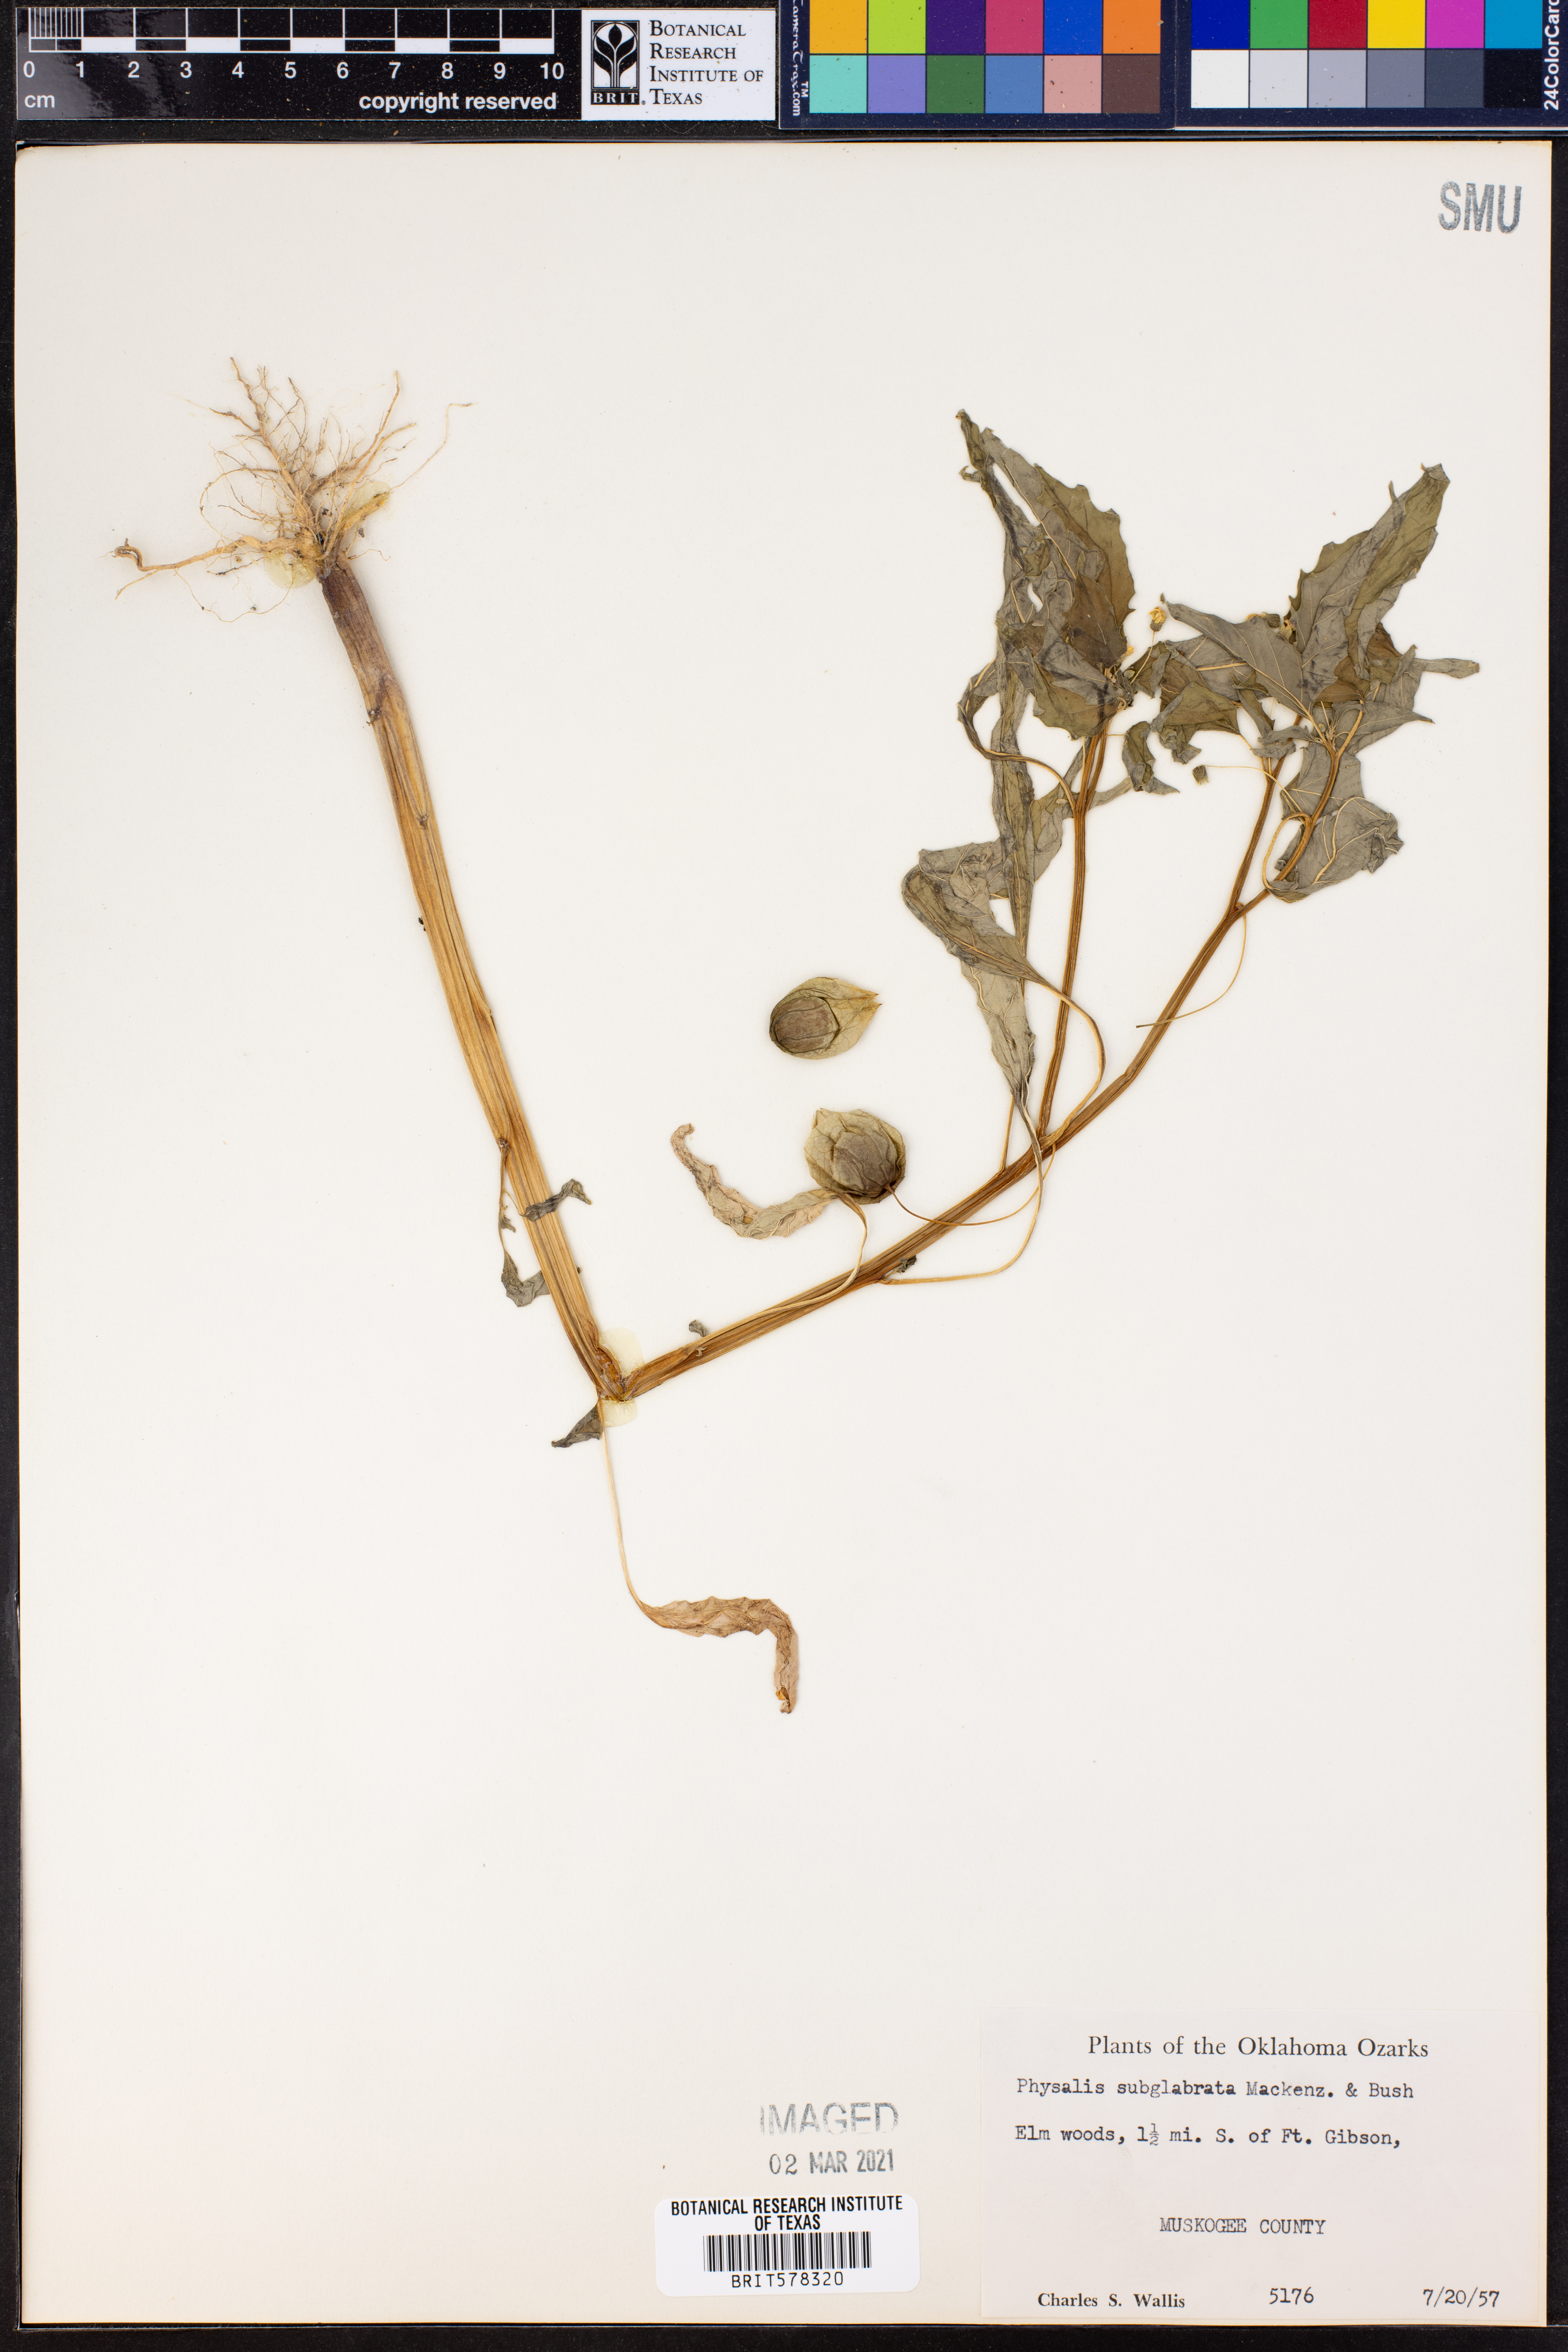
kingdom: Plantae
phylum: Tracheophyta
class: Magnoliopsida
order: Solanales
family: Solanaceae
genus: Physalis
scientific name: Physalis longifolia
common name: Common ground-cherry
